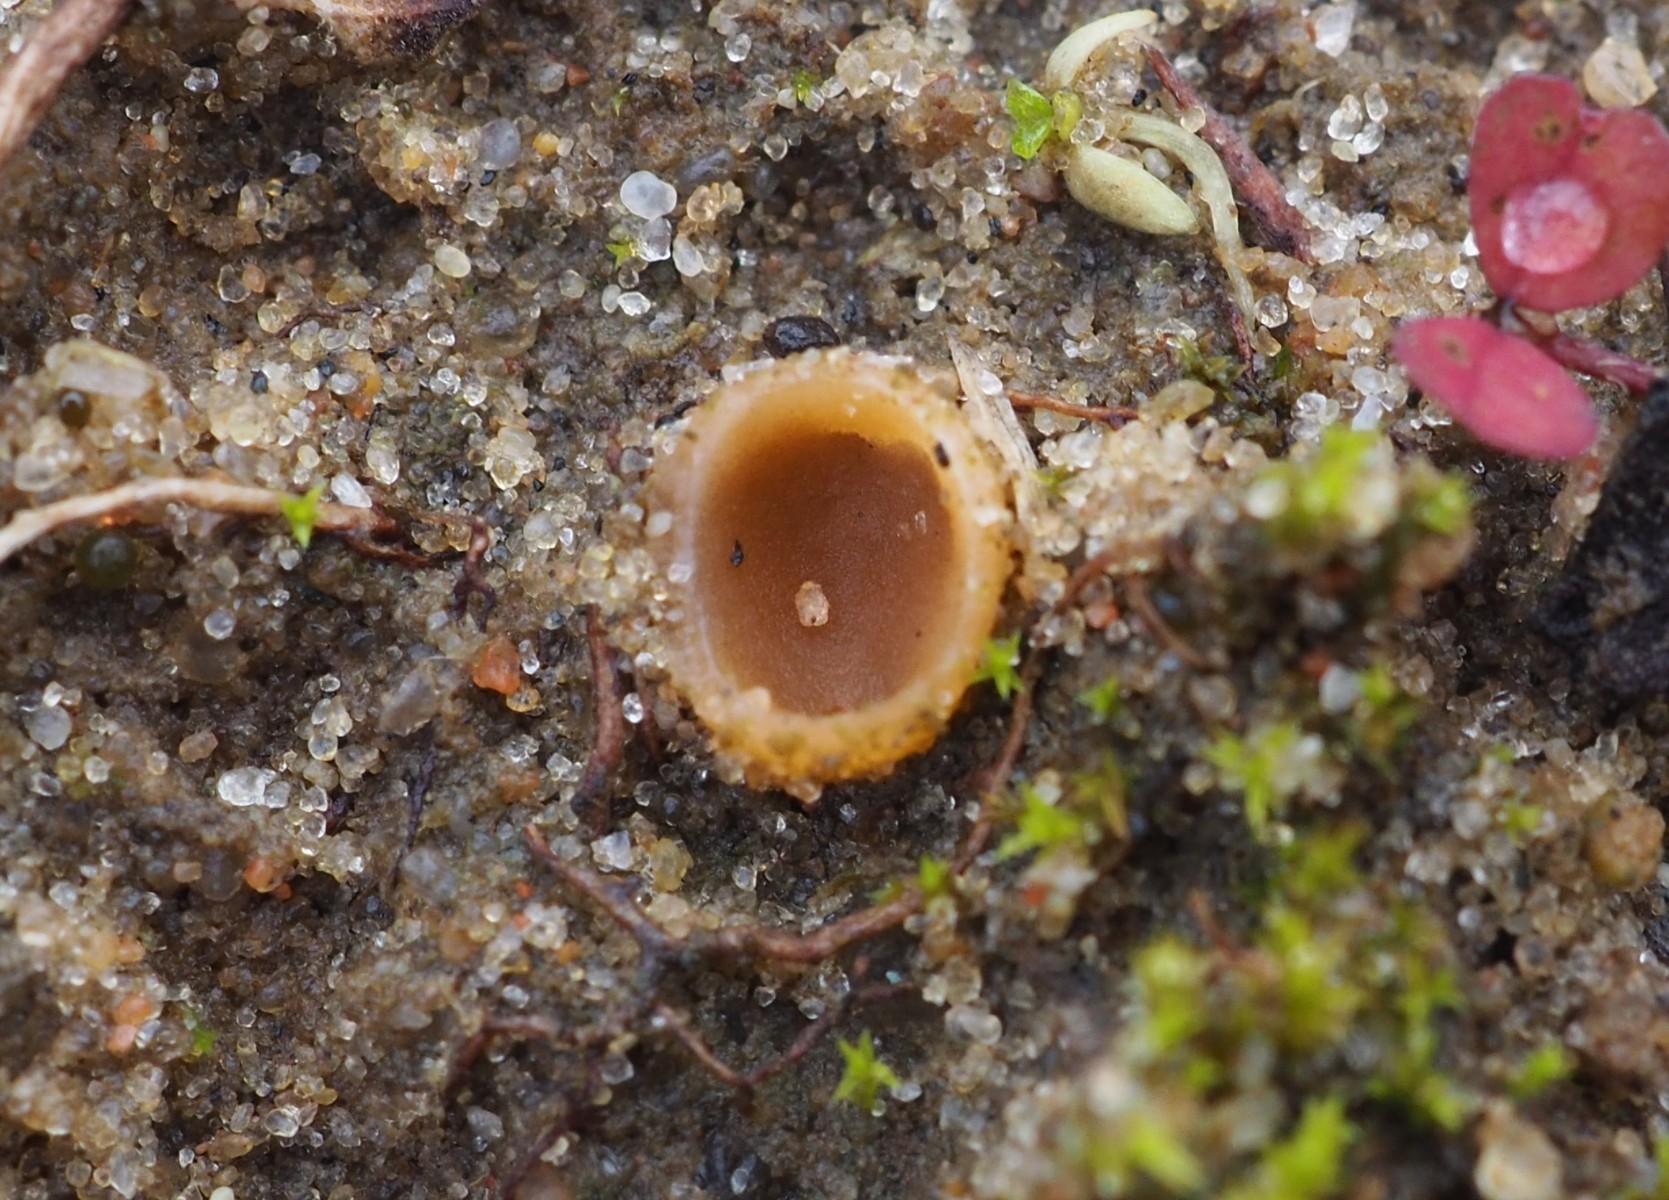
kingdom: Fungi
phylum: Ascomycota
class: Pezizomycetes
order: Pezizales
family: Pyronemataceae
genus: Geopora
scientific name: Geopora semi-immersa
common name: nedsænket børstebæger
